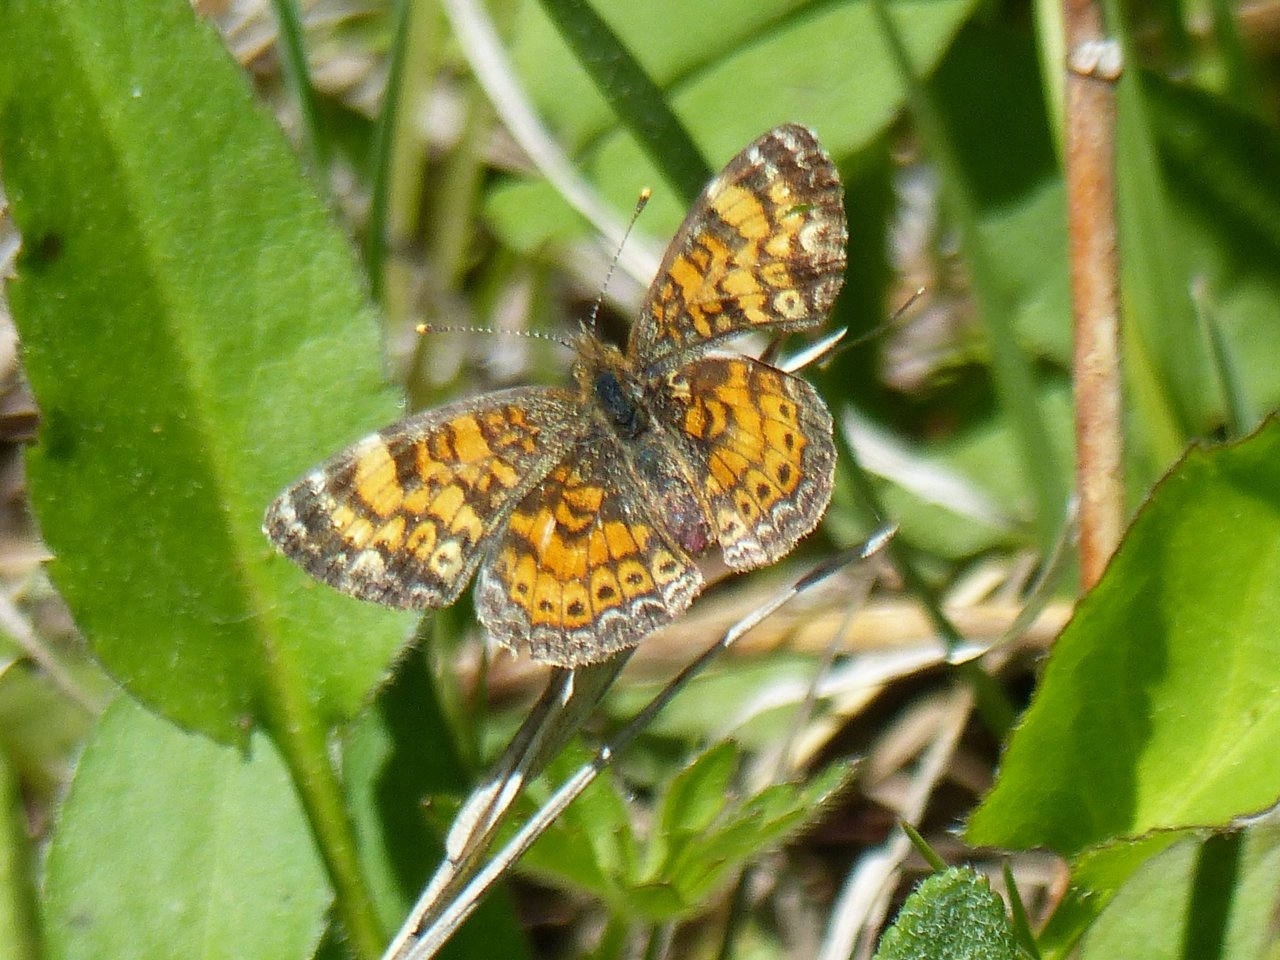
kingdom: Animalia
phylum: Arthropoda
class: Insecta
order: Lepidoptera
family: Nymphalidae
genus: Phyciodes
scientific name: Phyciodes tharos
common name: Pearl Crescent
